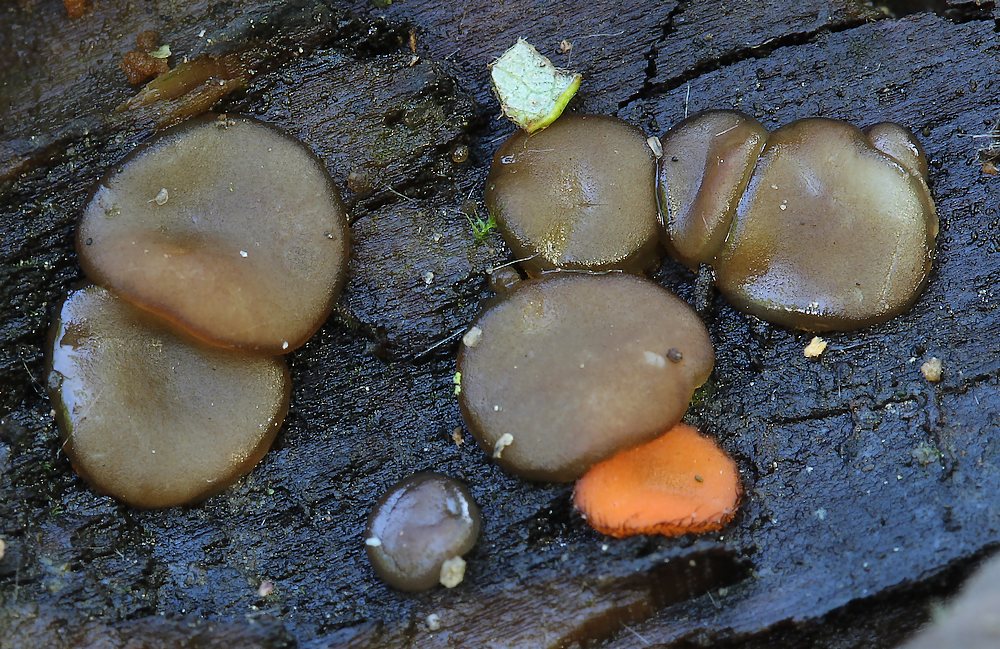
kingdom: Fungi
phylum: Ascomycota
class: Pezizomycetes
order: Pezizales
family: Pezizaceae
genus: Adelphella
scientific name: Adelphella babingtonii
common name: almindelig bækbæger
